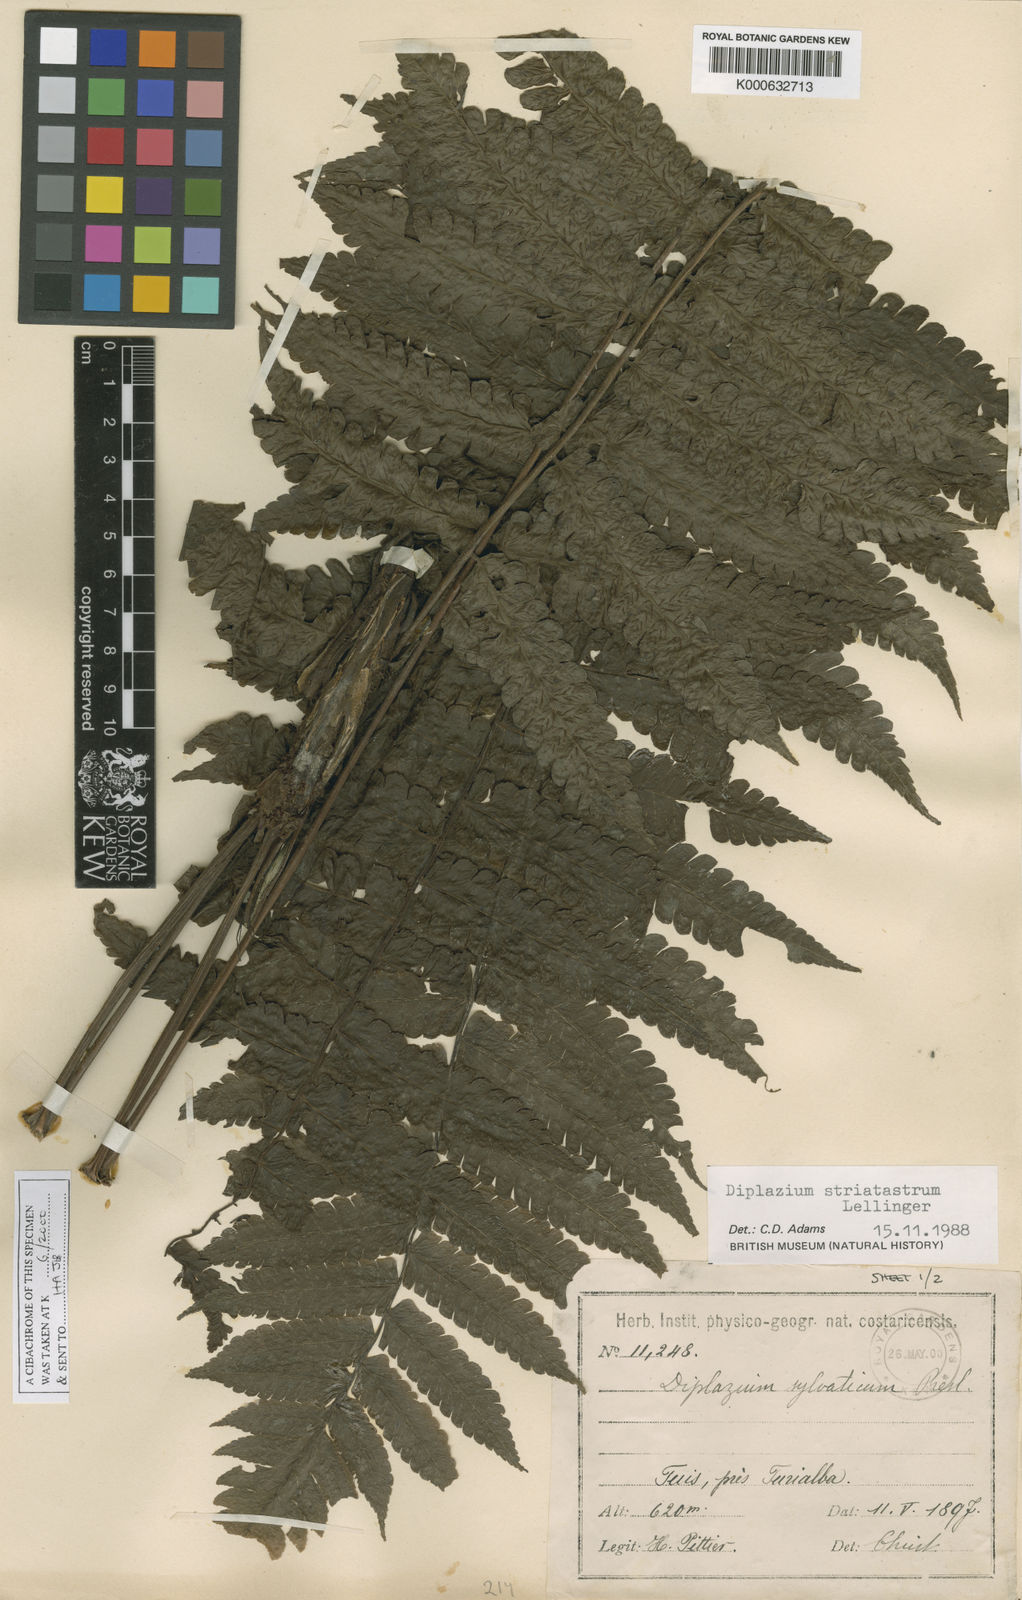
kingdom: Plantae
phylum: Tracheophyta
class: Polypodiopsida
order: Polypodiales
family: Athyriaceae
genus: Diplazium
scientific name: Diplazium striatastrum
